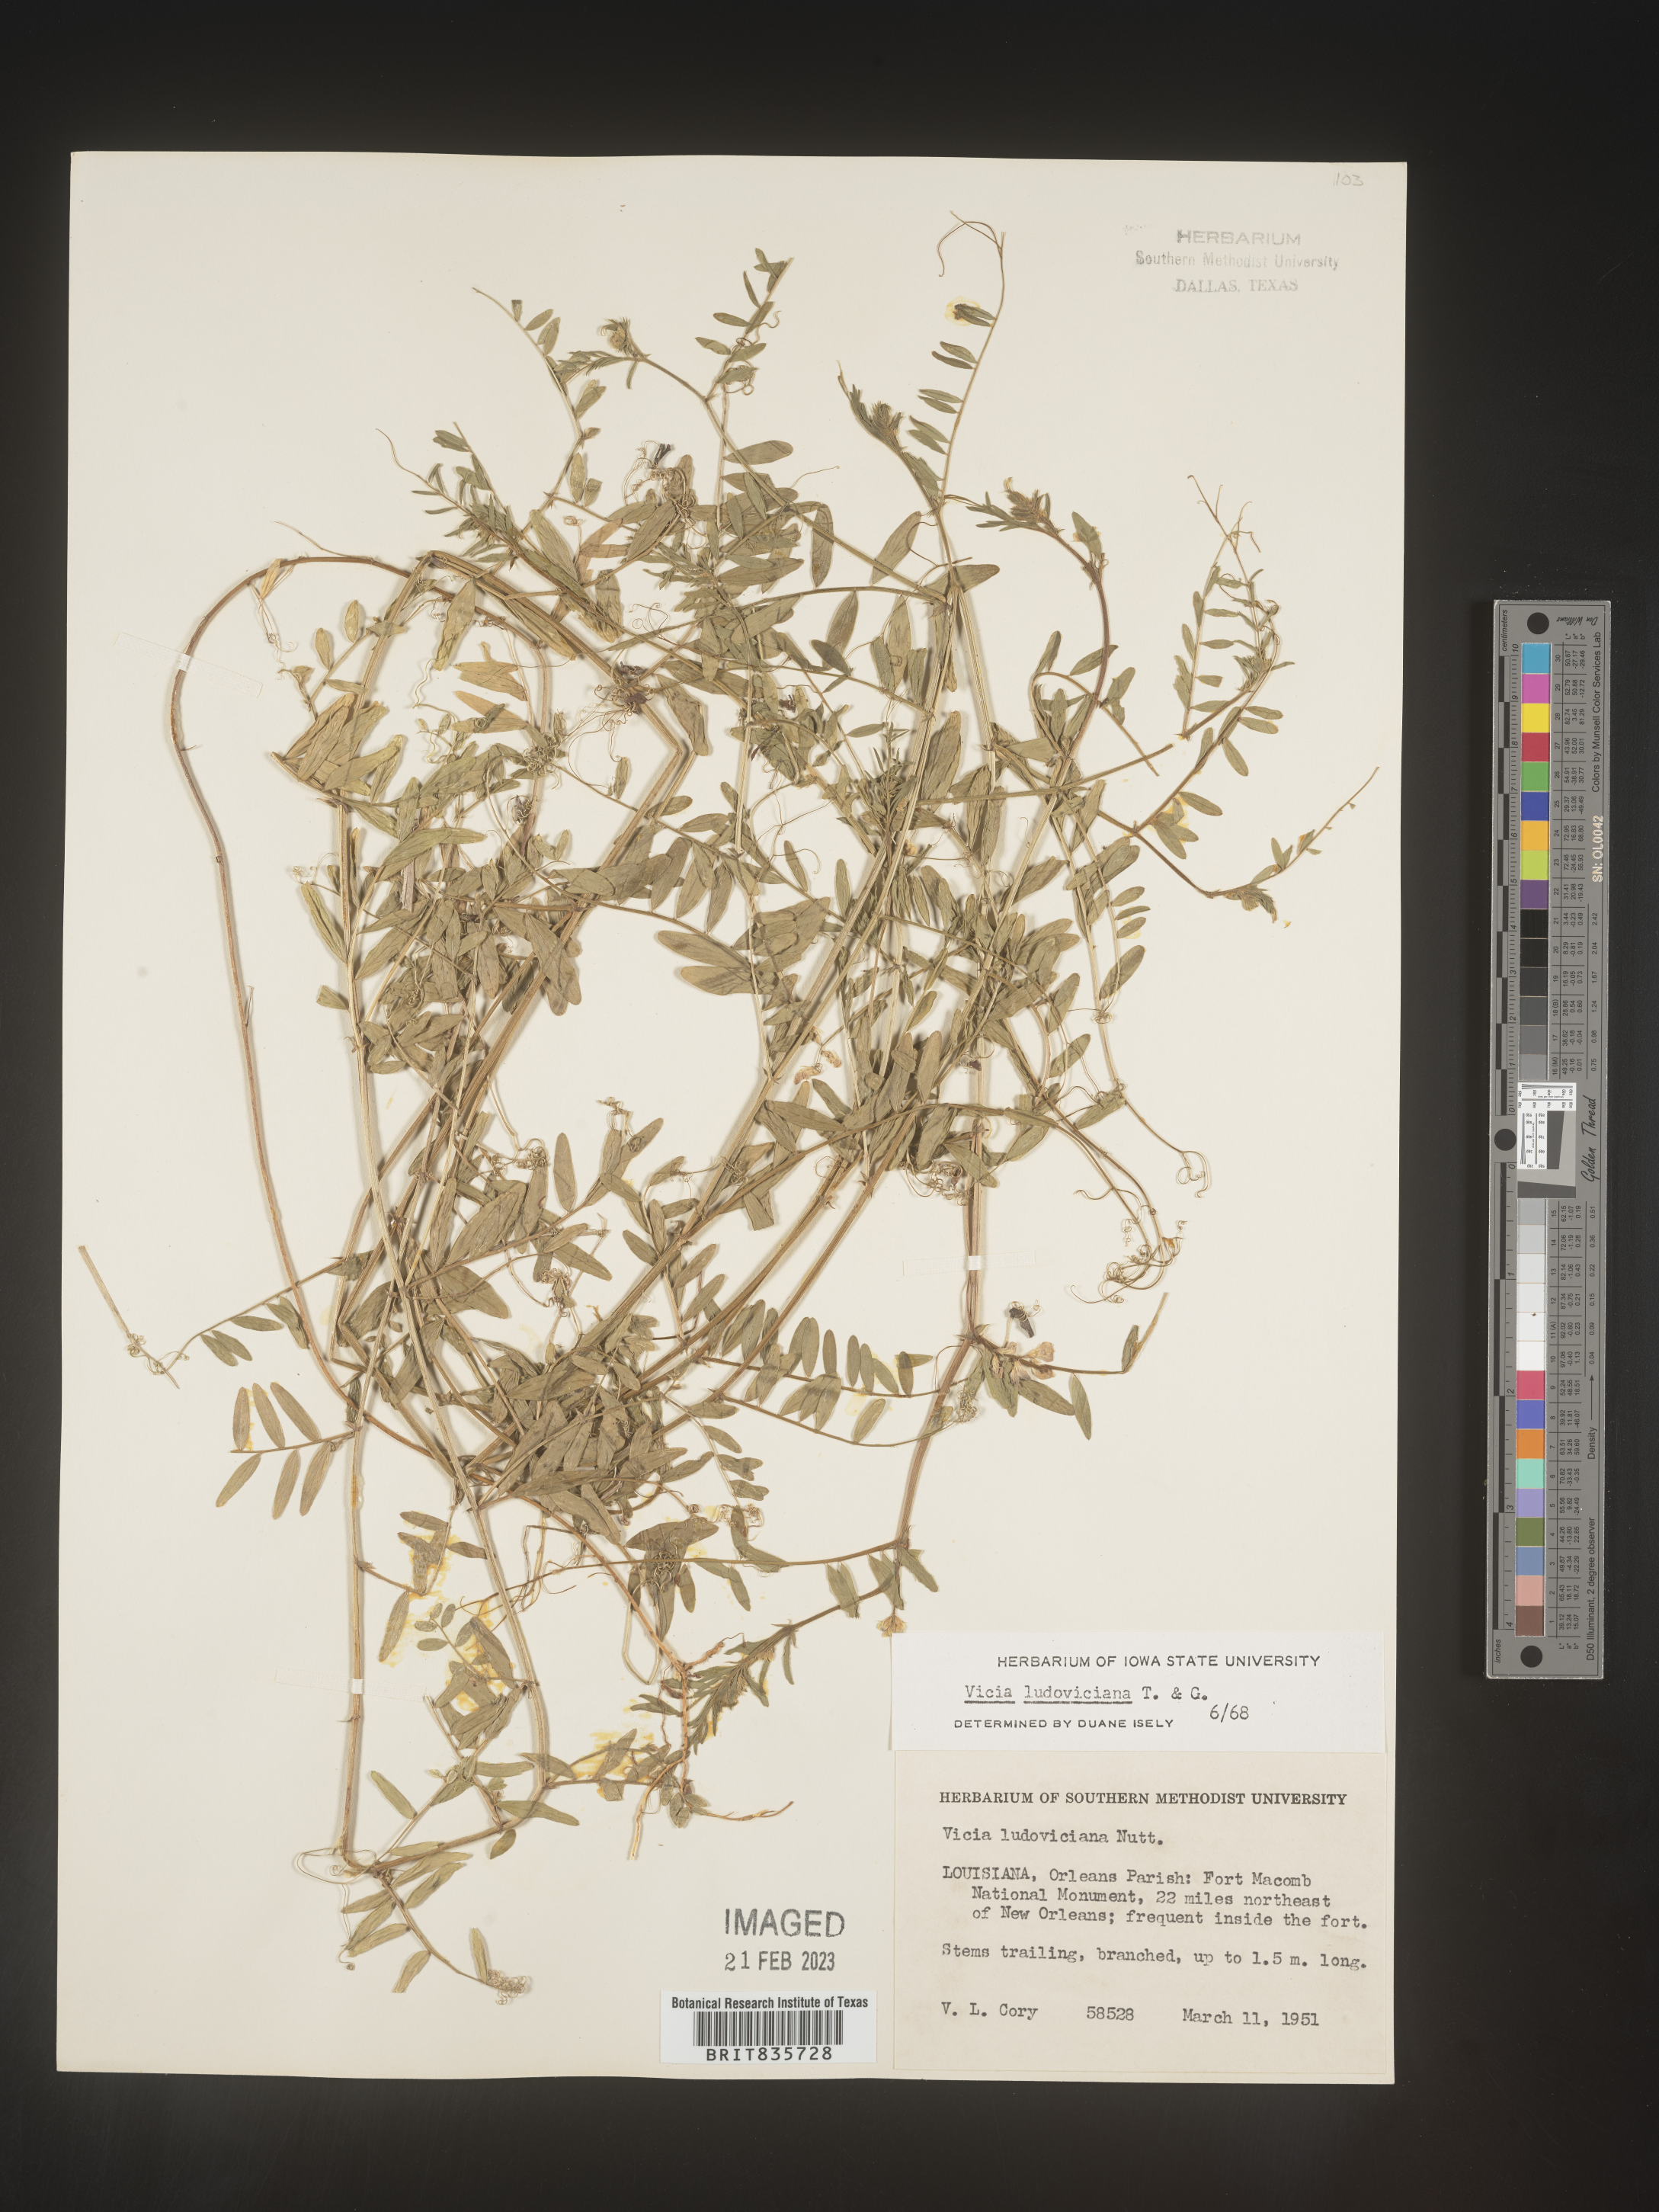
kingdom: Plantae
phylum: Tracheophyta
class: Magnoliopsida
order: Fabales
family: Fabaceae
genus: Vicia
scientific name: Vicia ludoviciana
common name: Louisiana vetch
